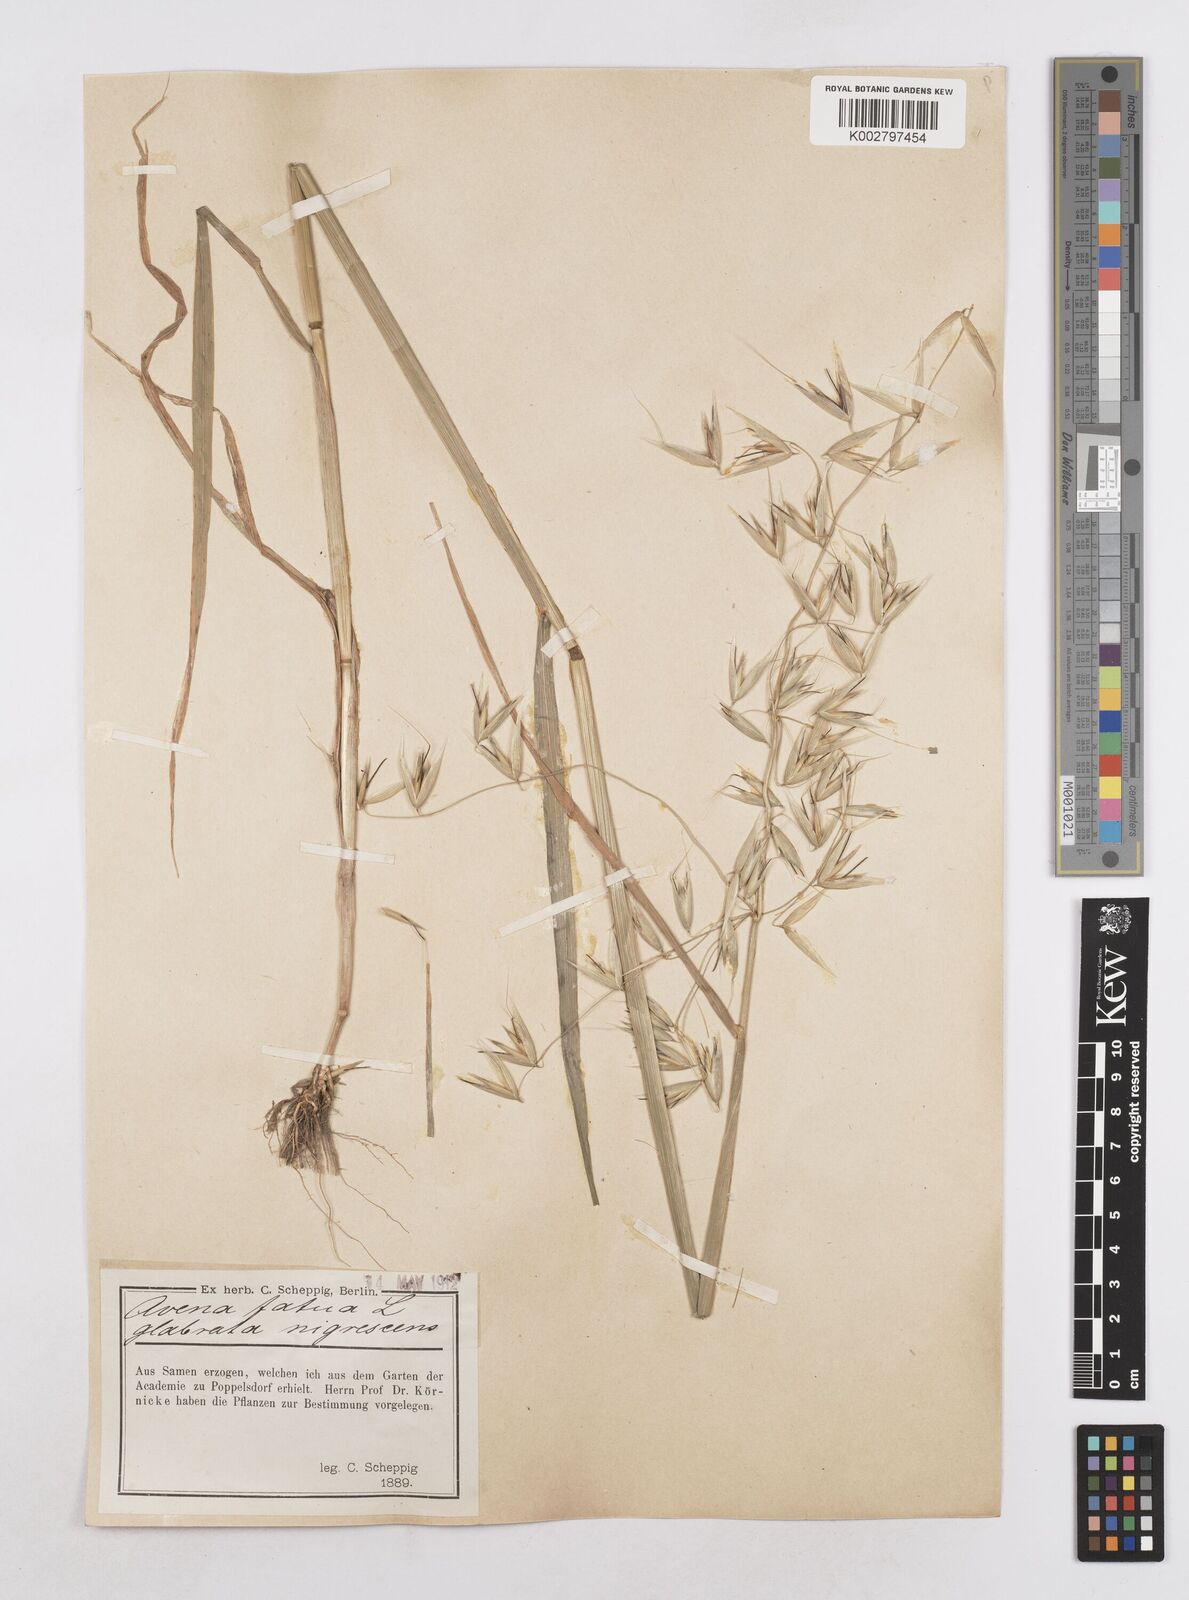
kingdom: Plantae
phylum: Tracheophyta
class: Liliopsida
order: Poales
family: Poaceae
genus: Avena
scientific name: Avena fatua
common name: Wild oat
